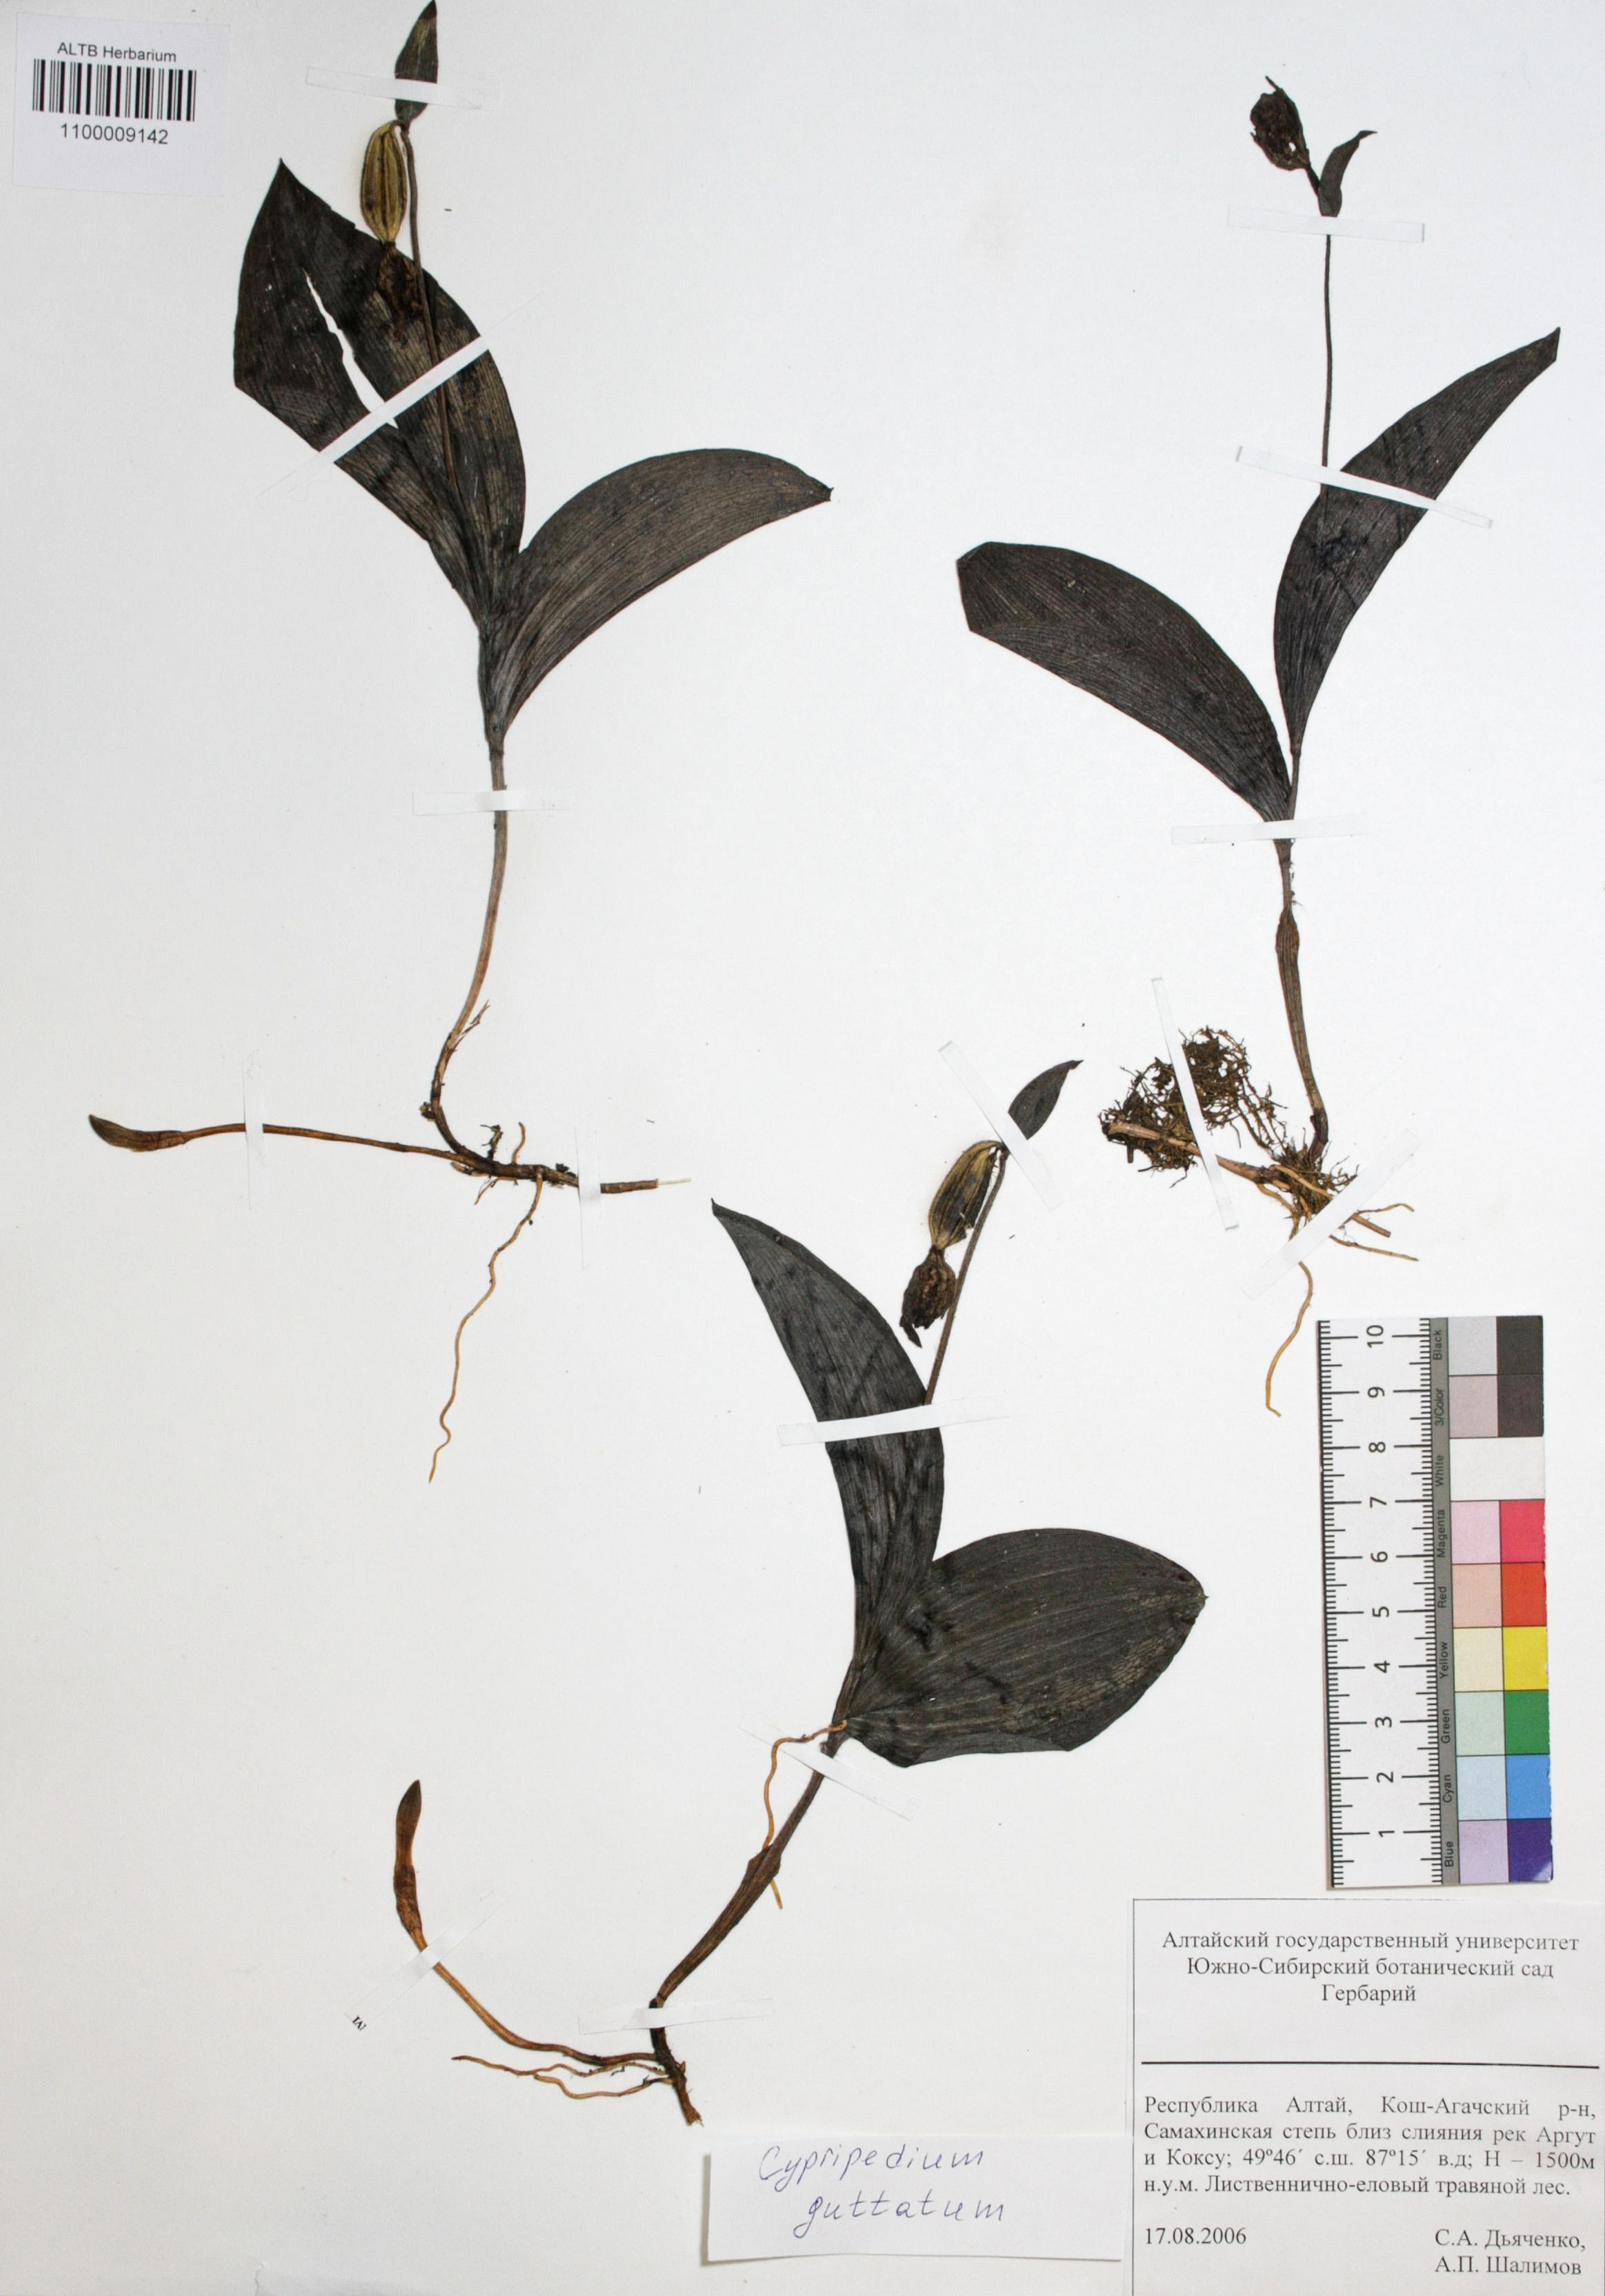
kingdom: Plantae
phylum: Tracheophyta
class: Liliopsida
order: Asparagales
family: Orchidaceae
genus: Cypripedium
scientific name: Cypripedium guttatum
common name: Pink lady slipper
